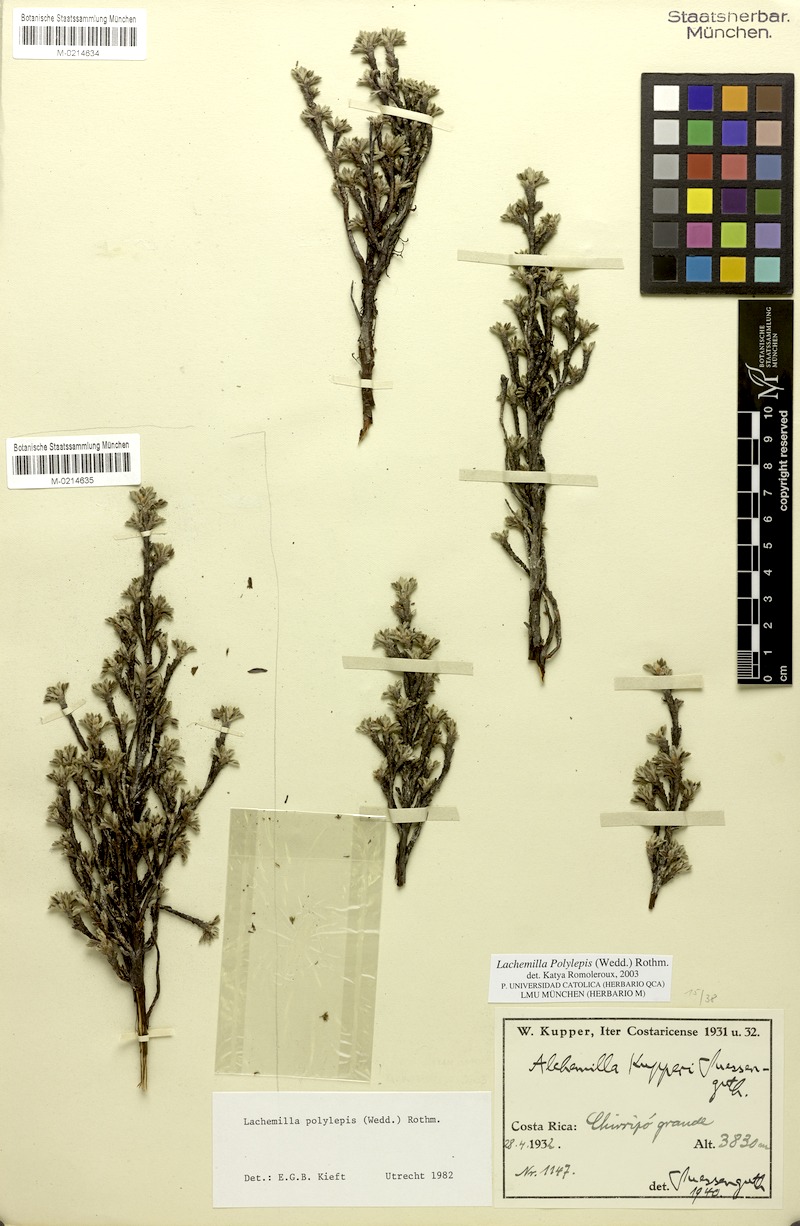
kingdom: Plantae
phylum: Tracheophyta
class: Magnoliopsida
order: Rosales
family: Rosaceae
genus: Lachemilla
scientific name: Lachemilla polylepis
